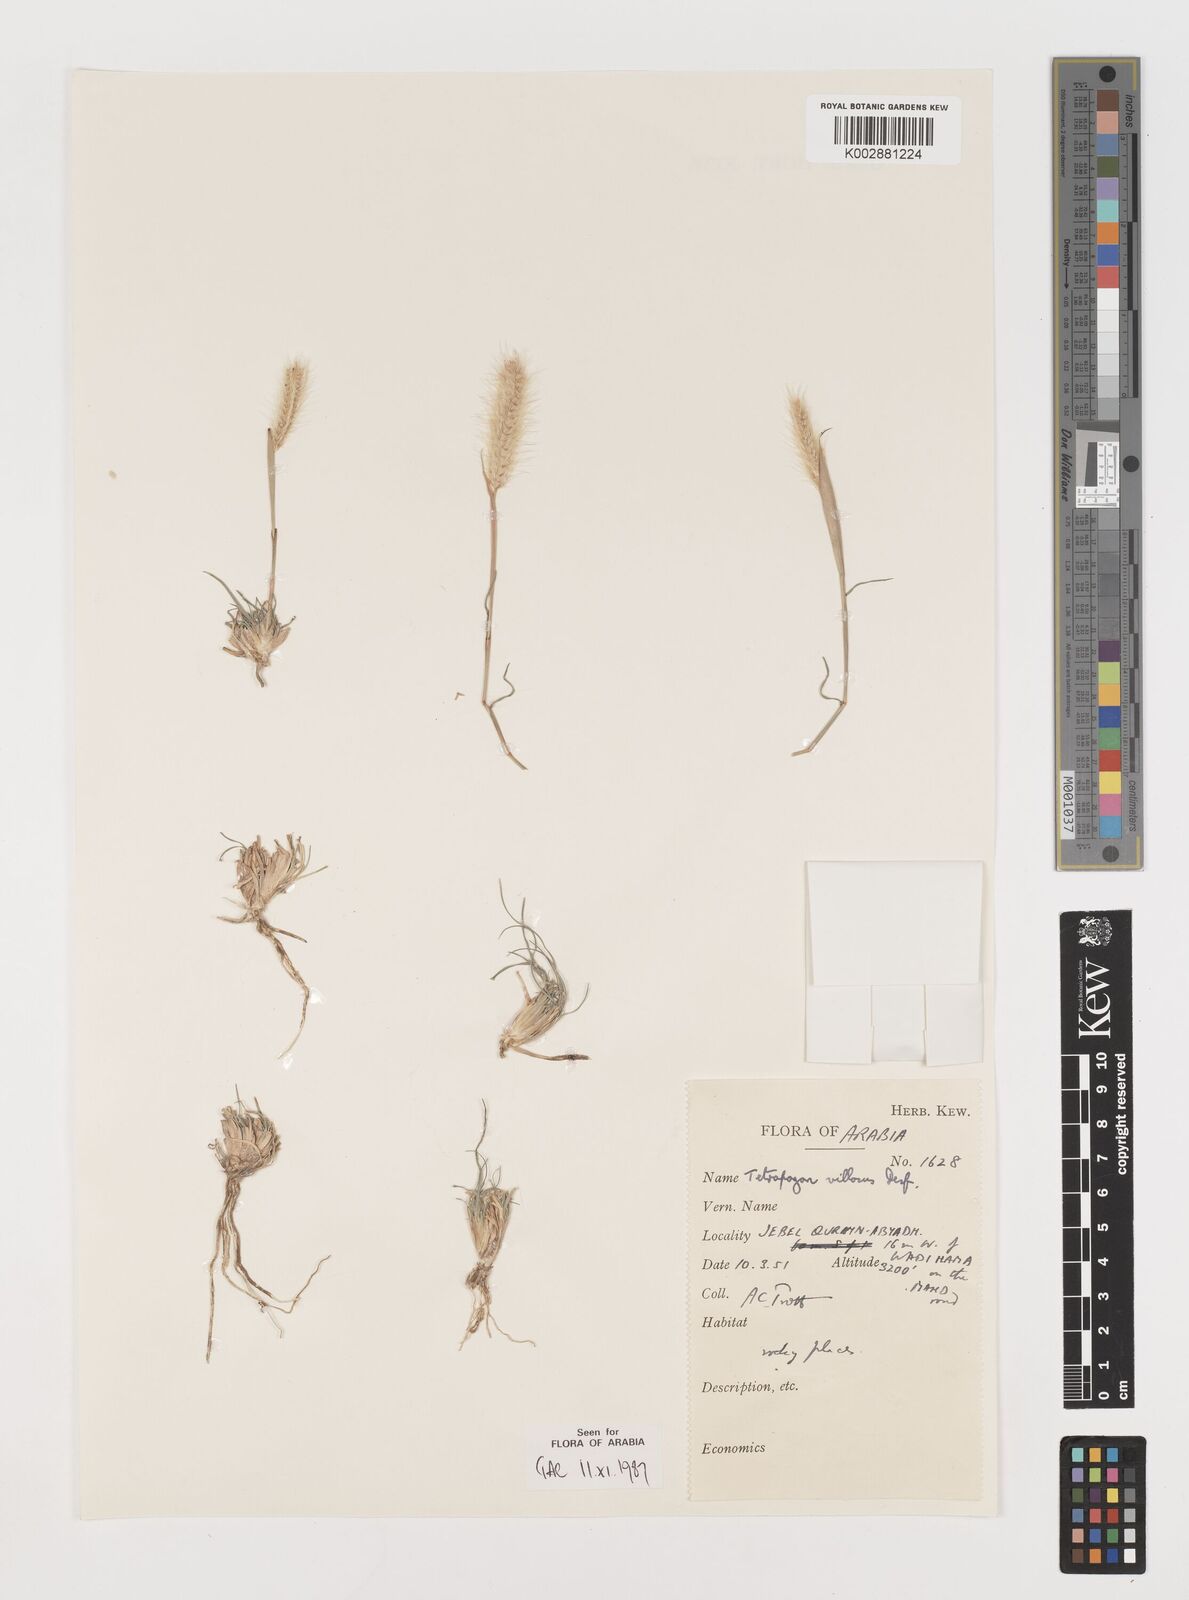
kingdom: Plantae
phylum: Tracheophyta
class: Liliopsida
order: Poales
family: Poaceae
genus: Tetrapogon
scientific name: Tetrapogon villosus
